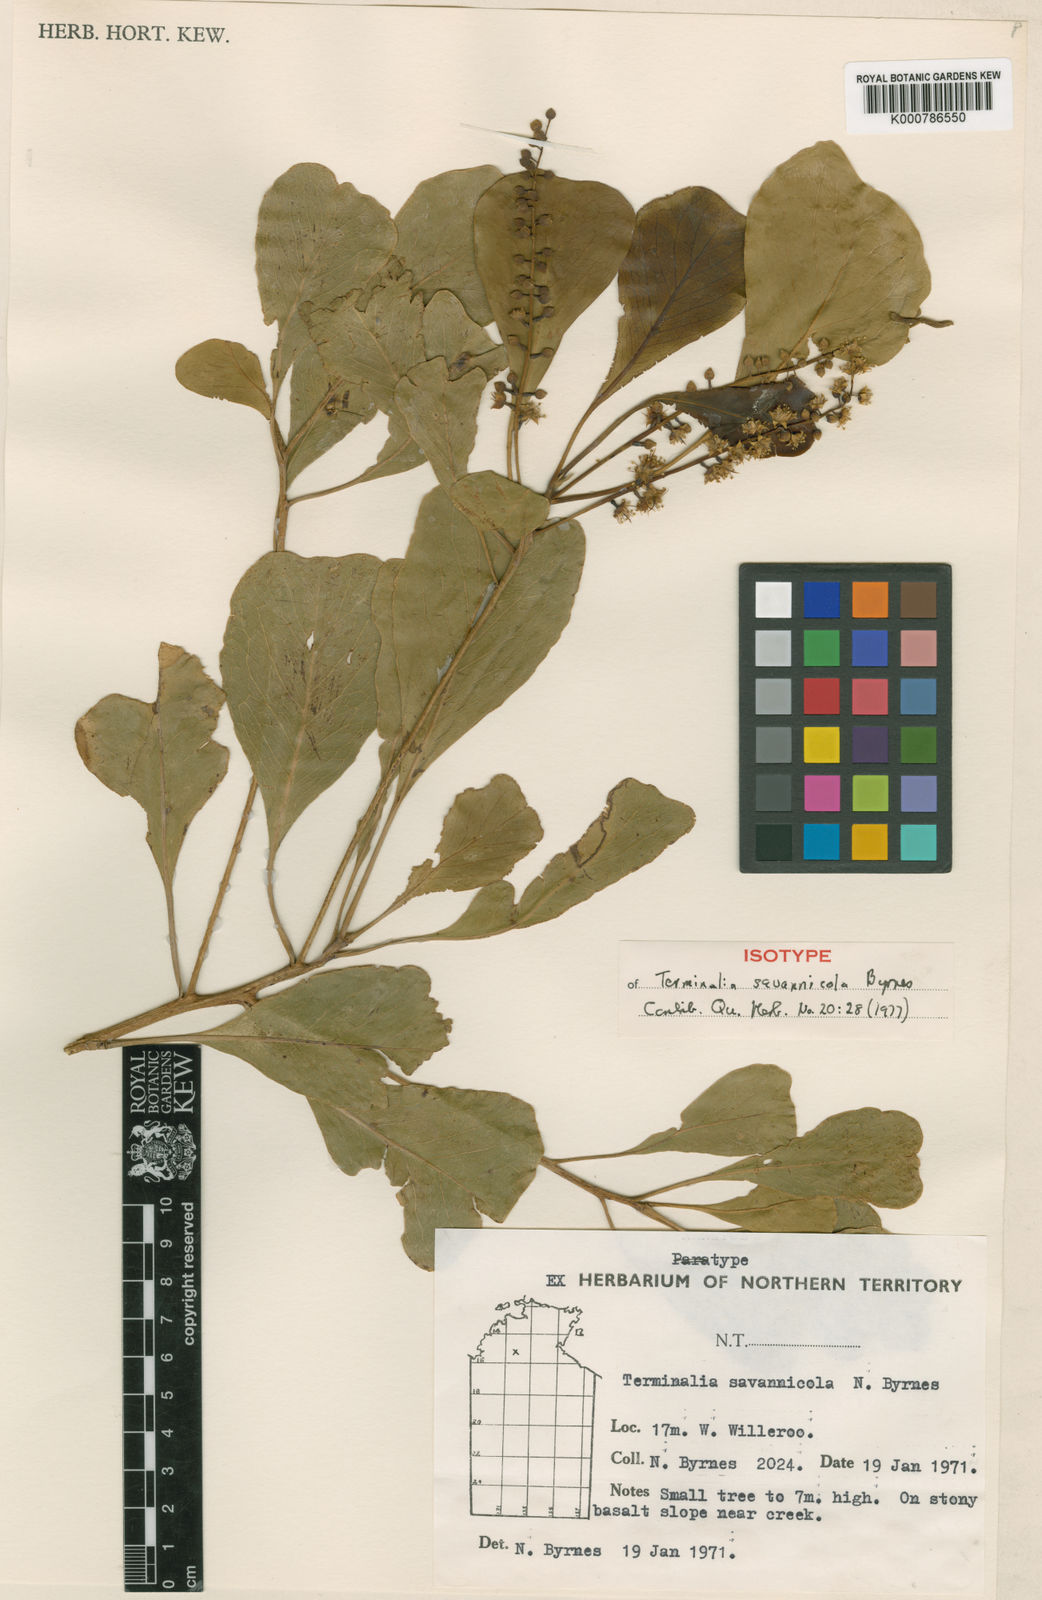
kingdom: Plantae
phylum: Tracheophyta
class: Magnoliopsida
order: Myrtales
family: Combretaceae
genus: Terminalia
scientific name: Terminalia arostrata
